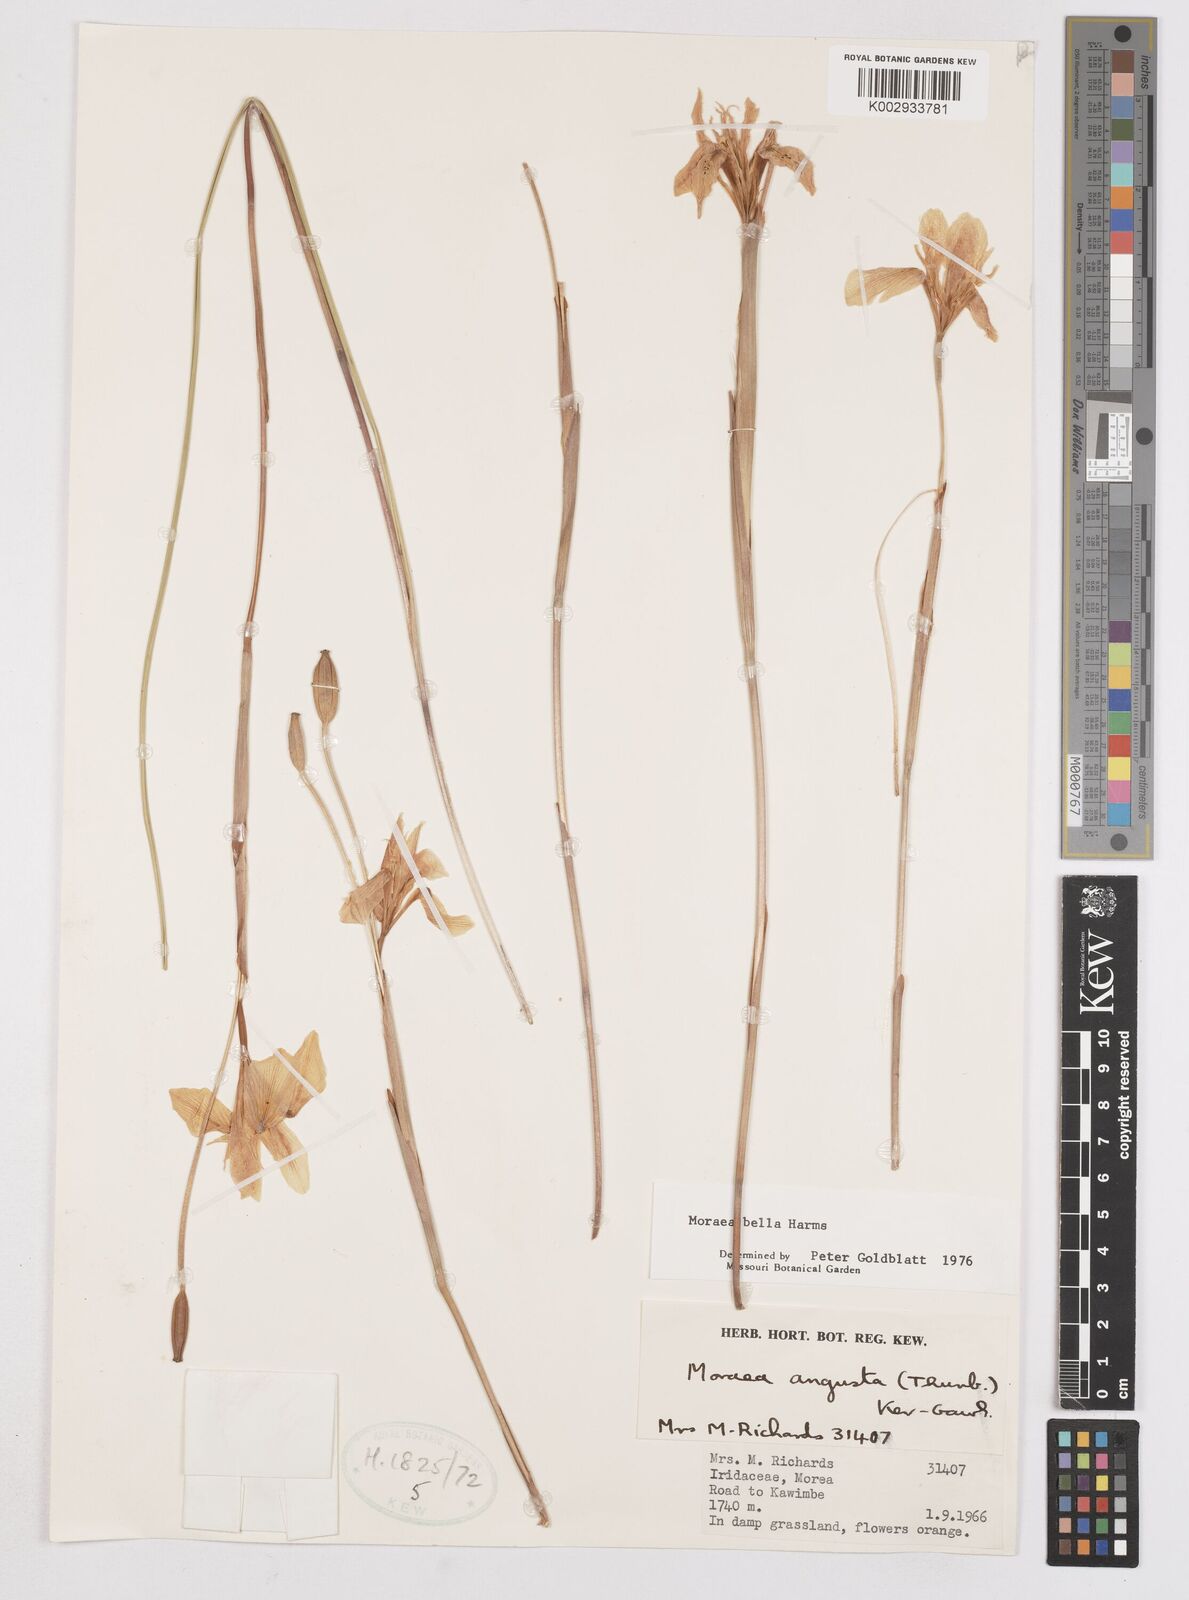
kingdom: Plantae
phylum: Tracheophyta
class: Liliopsida
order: Asparagales
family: Iridaceae
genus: Moraea
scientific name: Moraea bella
